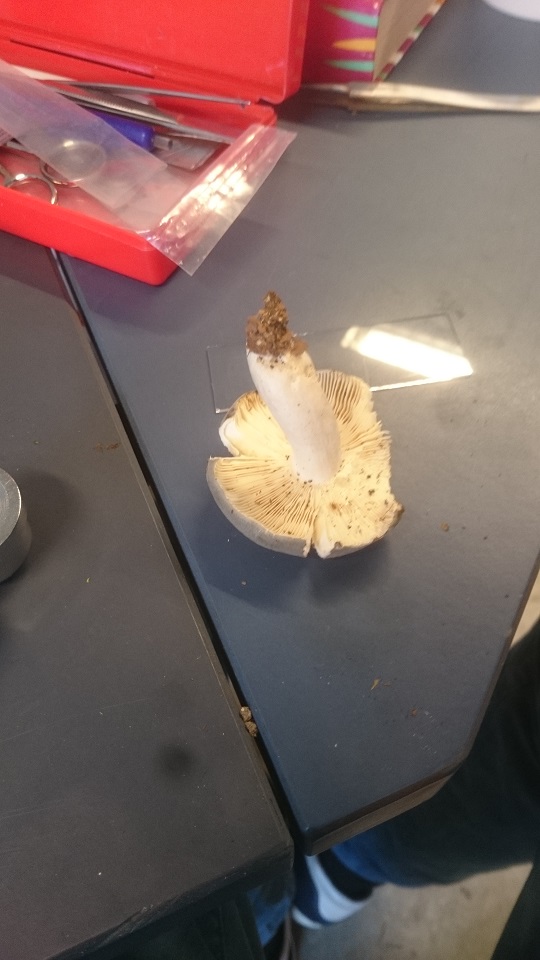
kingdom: Fungi
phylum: Basidiomycota
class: Agaricomycetes
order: Russulales
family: Russulaceae
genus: Russula
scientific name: Russula parazurea
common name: blågrå skørhat
